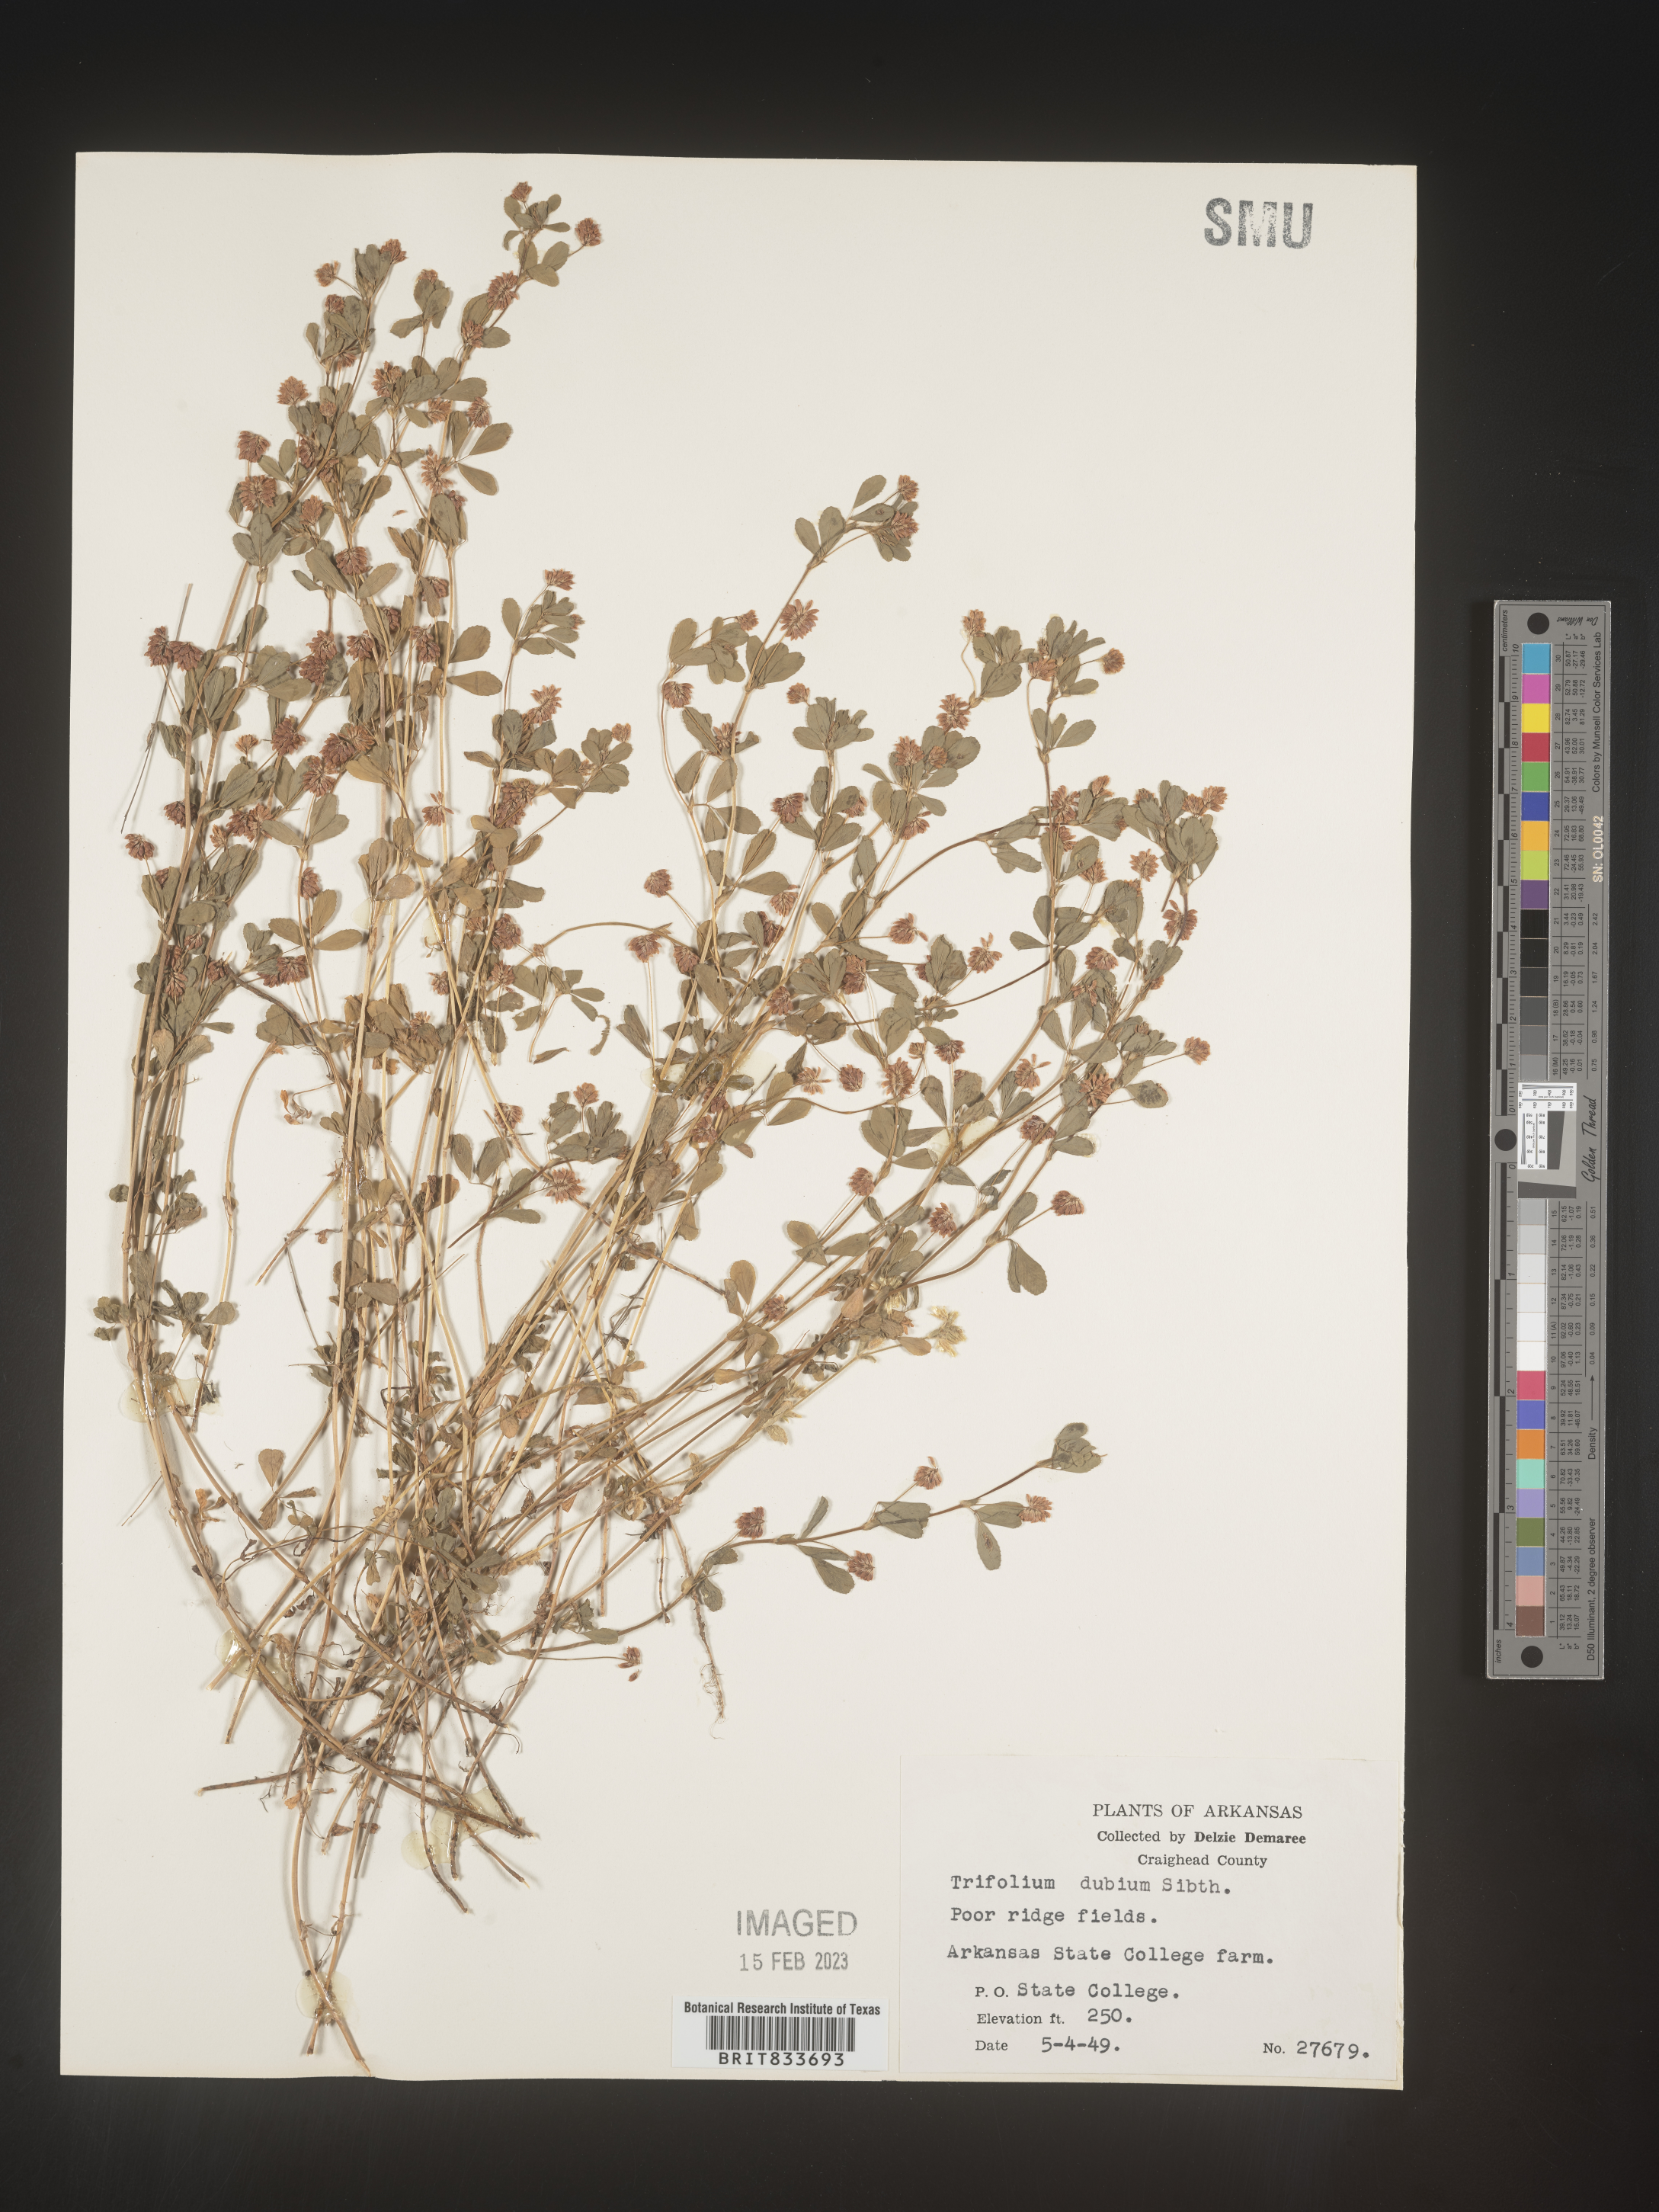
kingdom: Plantae
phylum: Tracheophyta
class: Magnoliopsida
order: Fabales
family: Fabaceae
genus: Trifolium
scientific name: Trifolium dubium
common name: Suckling clover
